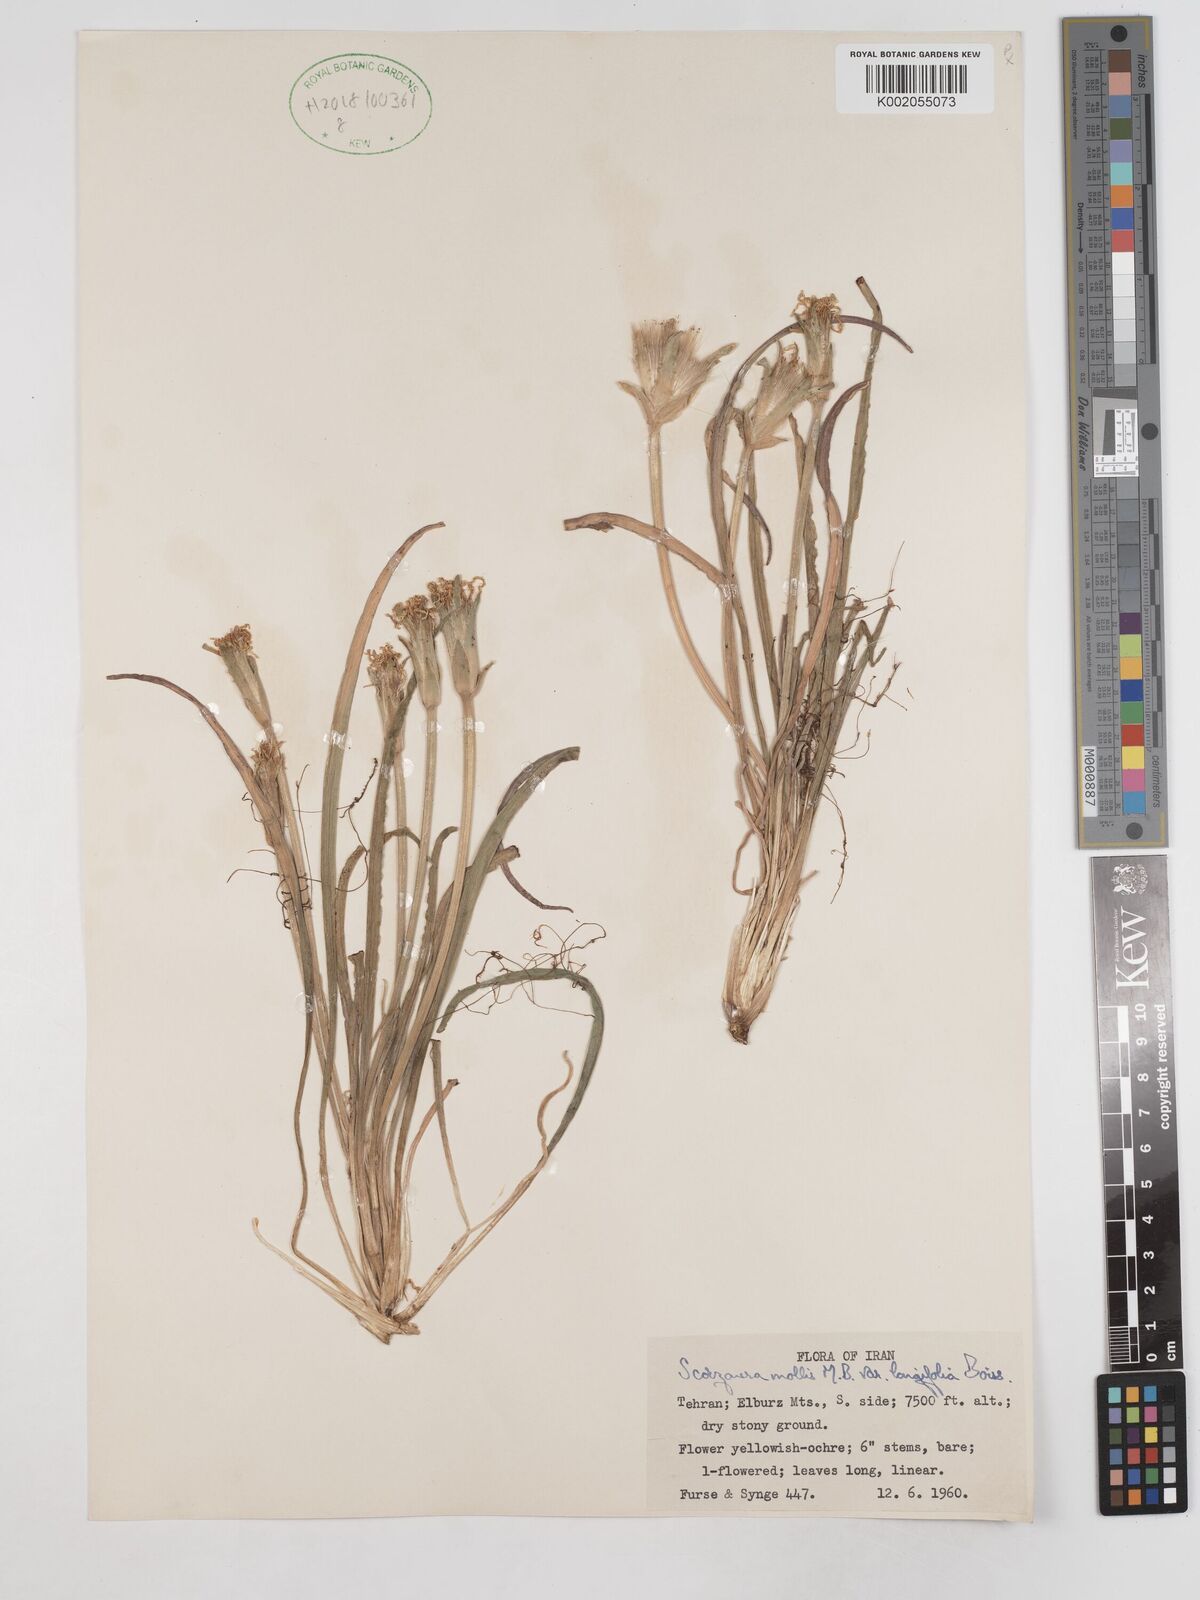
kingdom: Plantae
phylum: Tracheophyta
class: Magnoliopsida
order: Asterales
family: Asteraceae
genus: Candollea
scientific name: Candollea mollis
